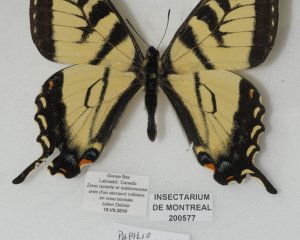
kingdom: Animalia
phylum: Arthropoda
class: Insecta
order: Lepidoptera
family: Papilionidae
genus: Pterourus
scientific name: Pterourus canadensis
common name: Canadian Tiger Swallowtail
